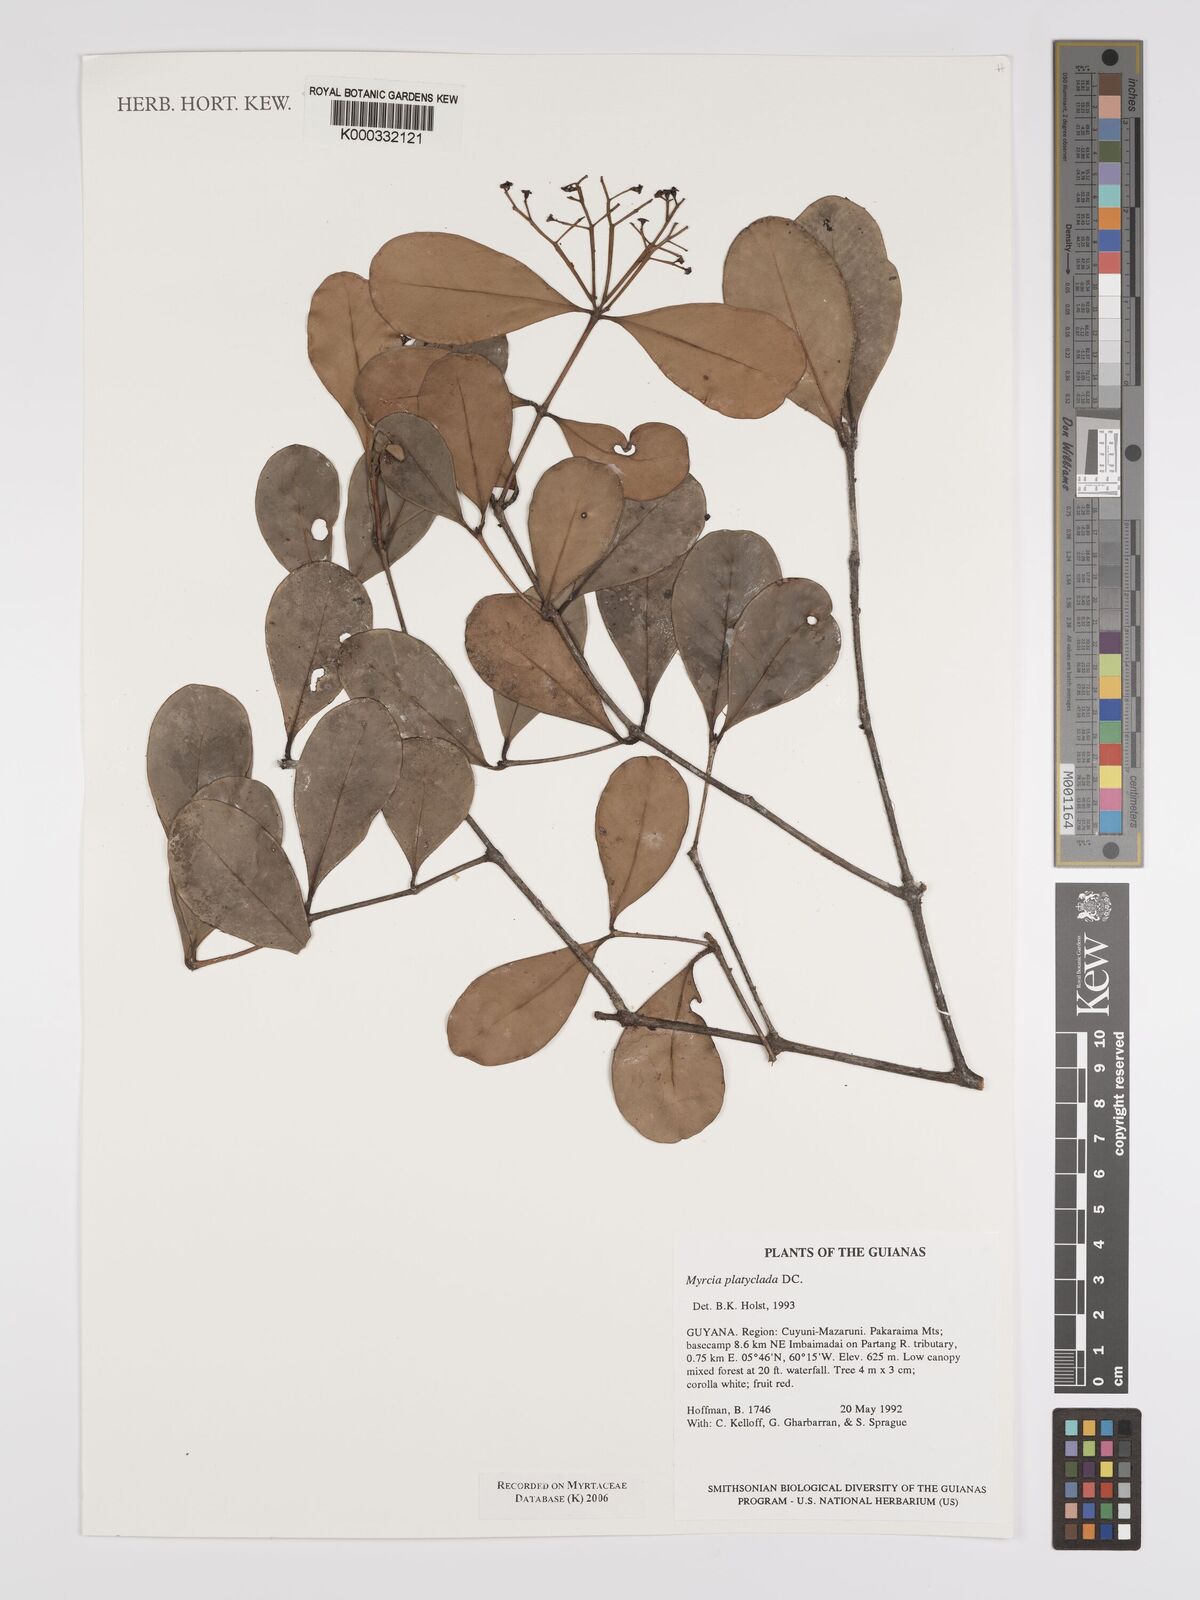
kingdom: Plantae
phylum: Tracheophyta
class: Magnoliopsida
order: Myrtales
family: Myrtaceae
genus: Myrcia
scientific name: Myrcia platyclada
